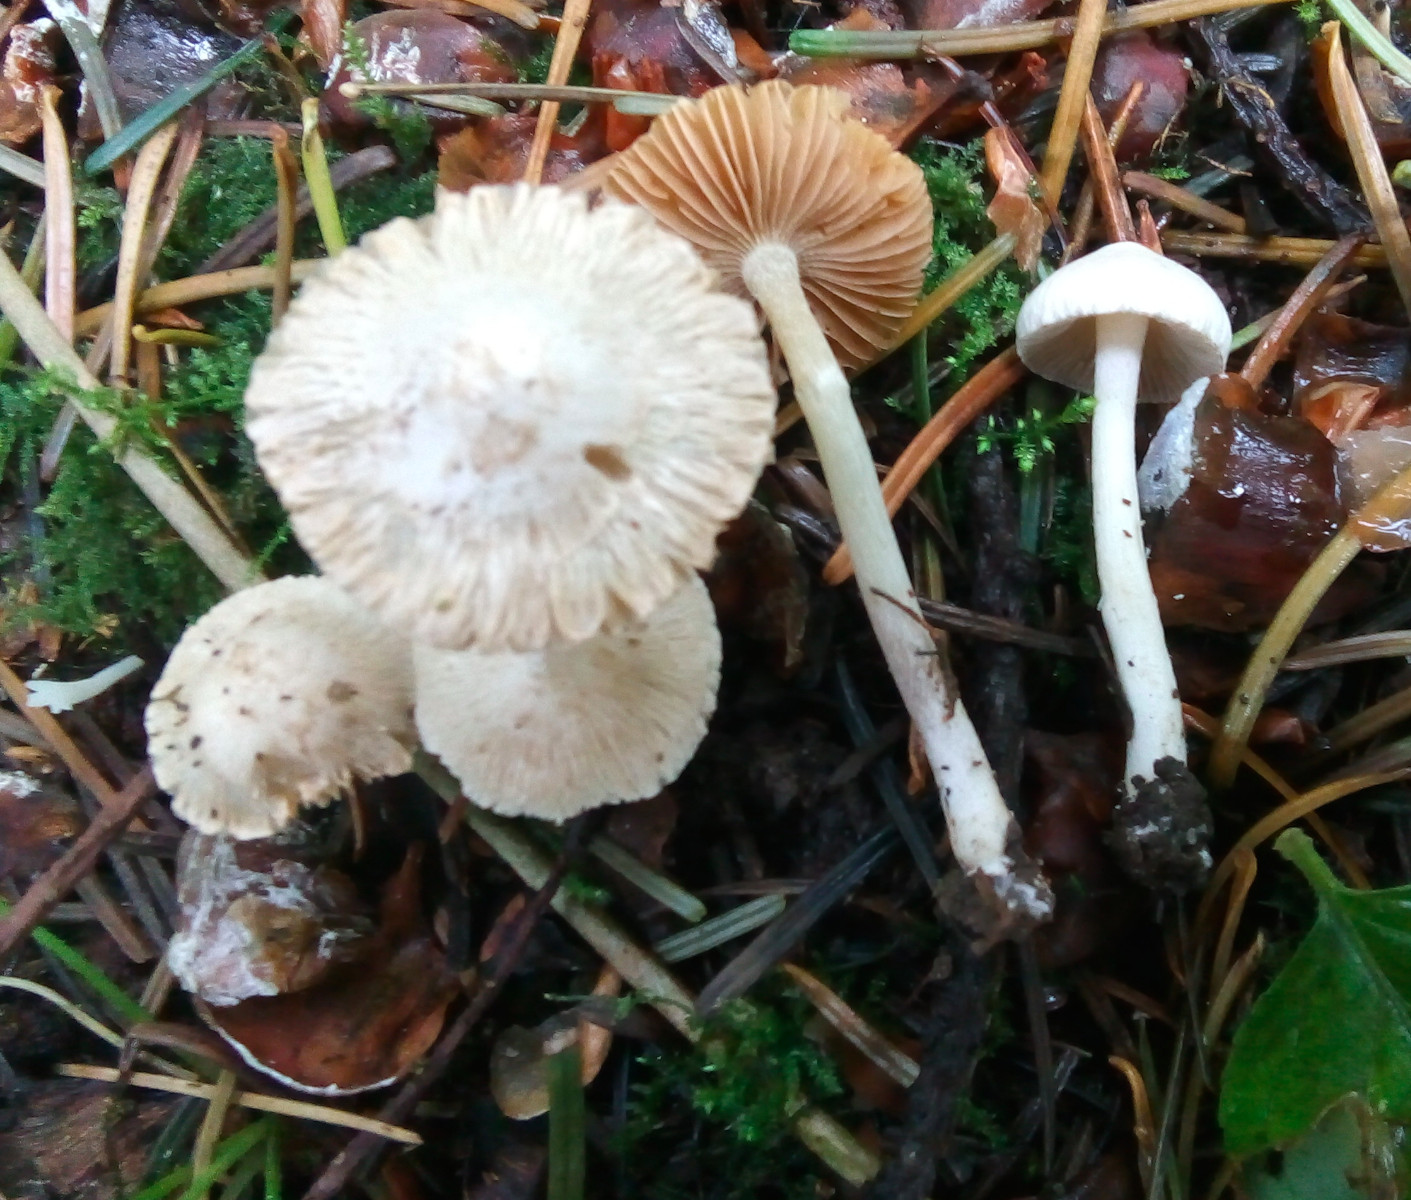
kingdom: Fungi
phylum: Basidiomycota
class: Agaricomycetes
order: Agaricales
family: Inocybaceae
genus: Inocybe
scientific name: Inocybe
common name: almindelig trævlhat
